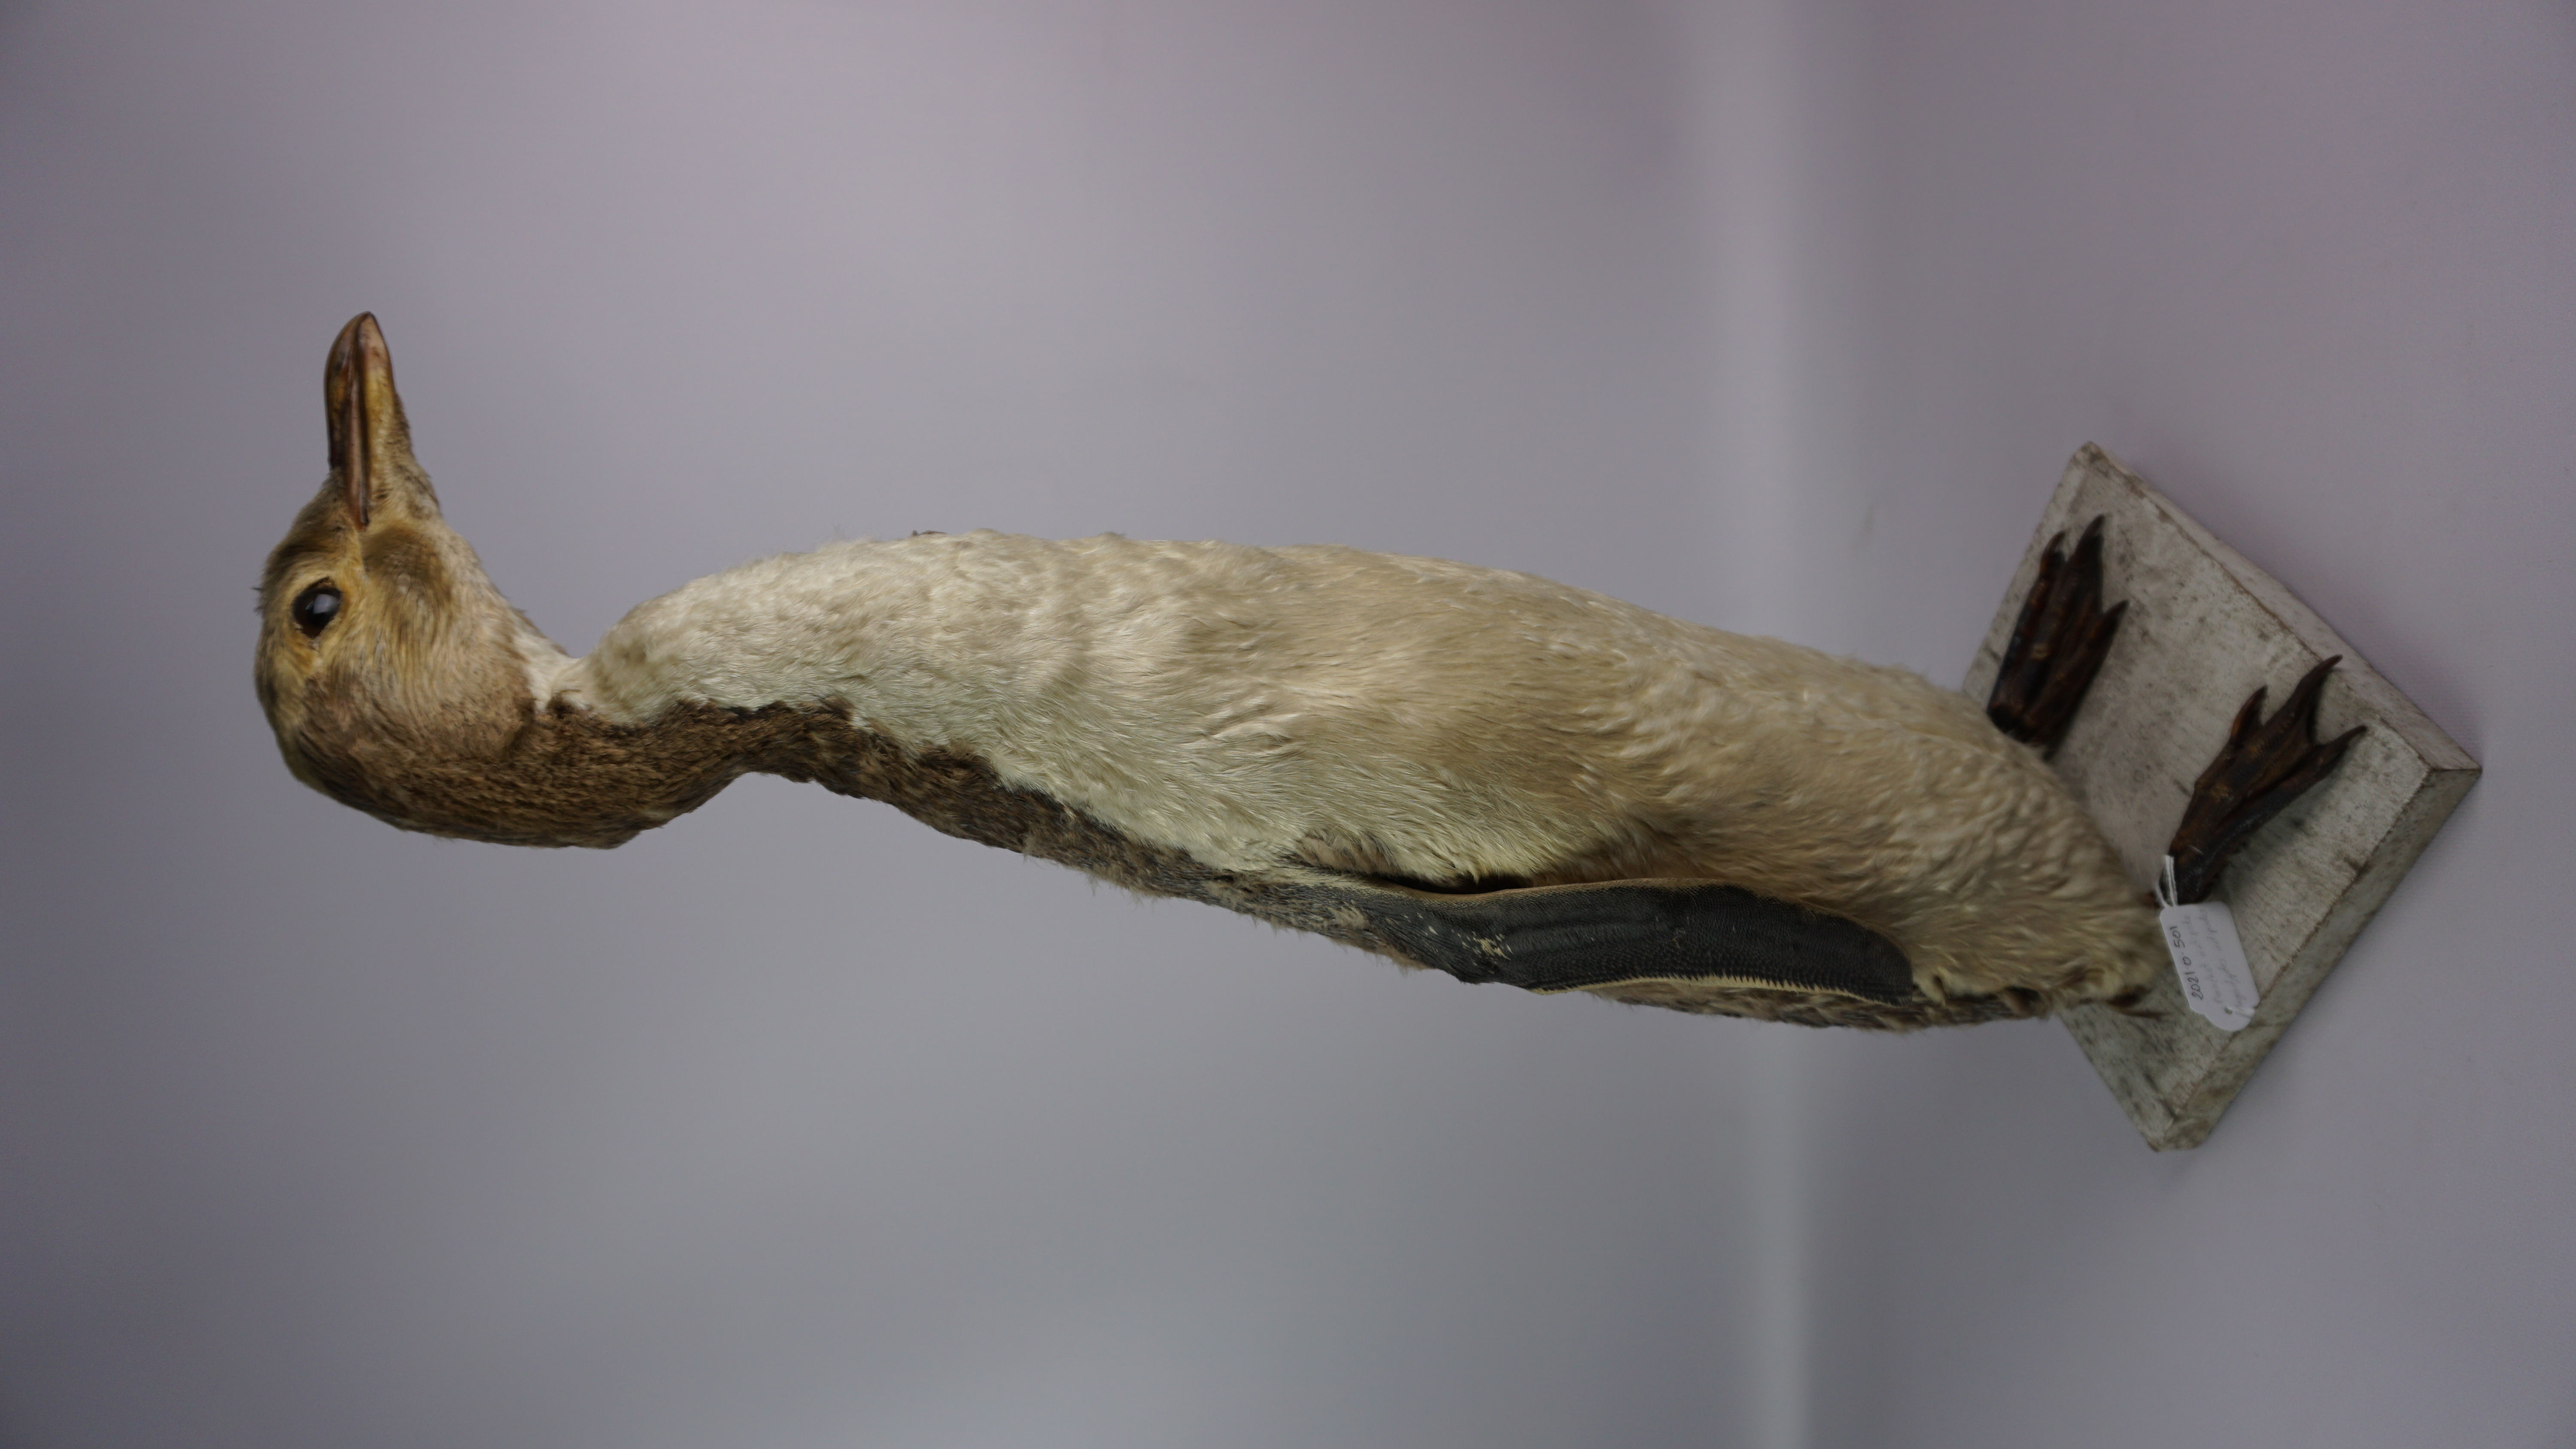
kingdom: Animalia
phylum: Chordata
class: Aves
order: Sphenisciformes
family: Spheniscidae
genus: Megadyptes
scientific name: Megadyptes antipodes
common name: Yellow-eyed penguin
